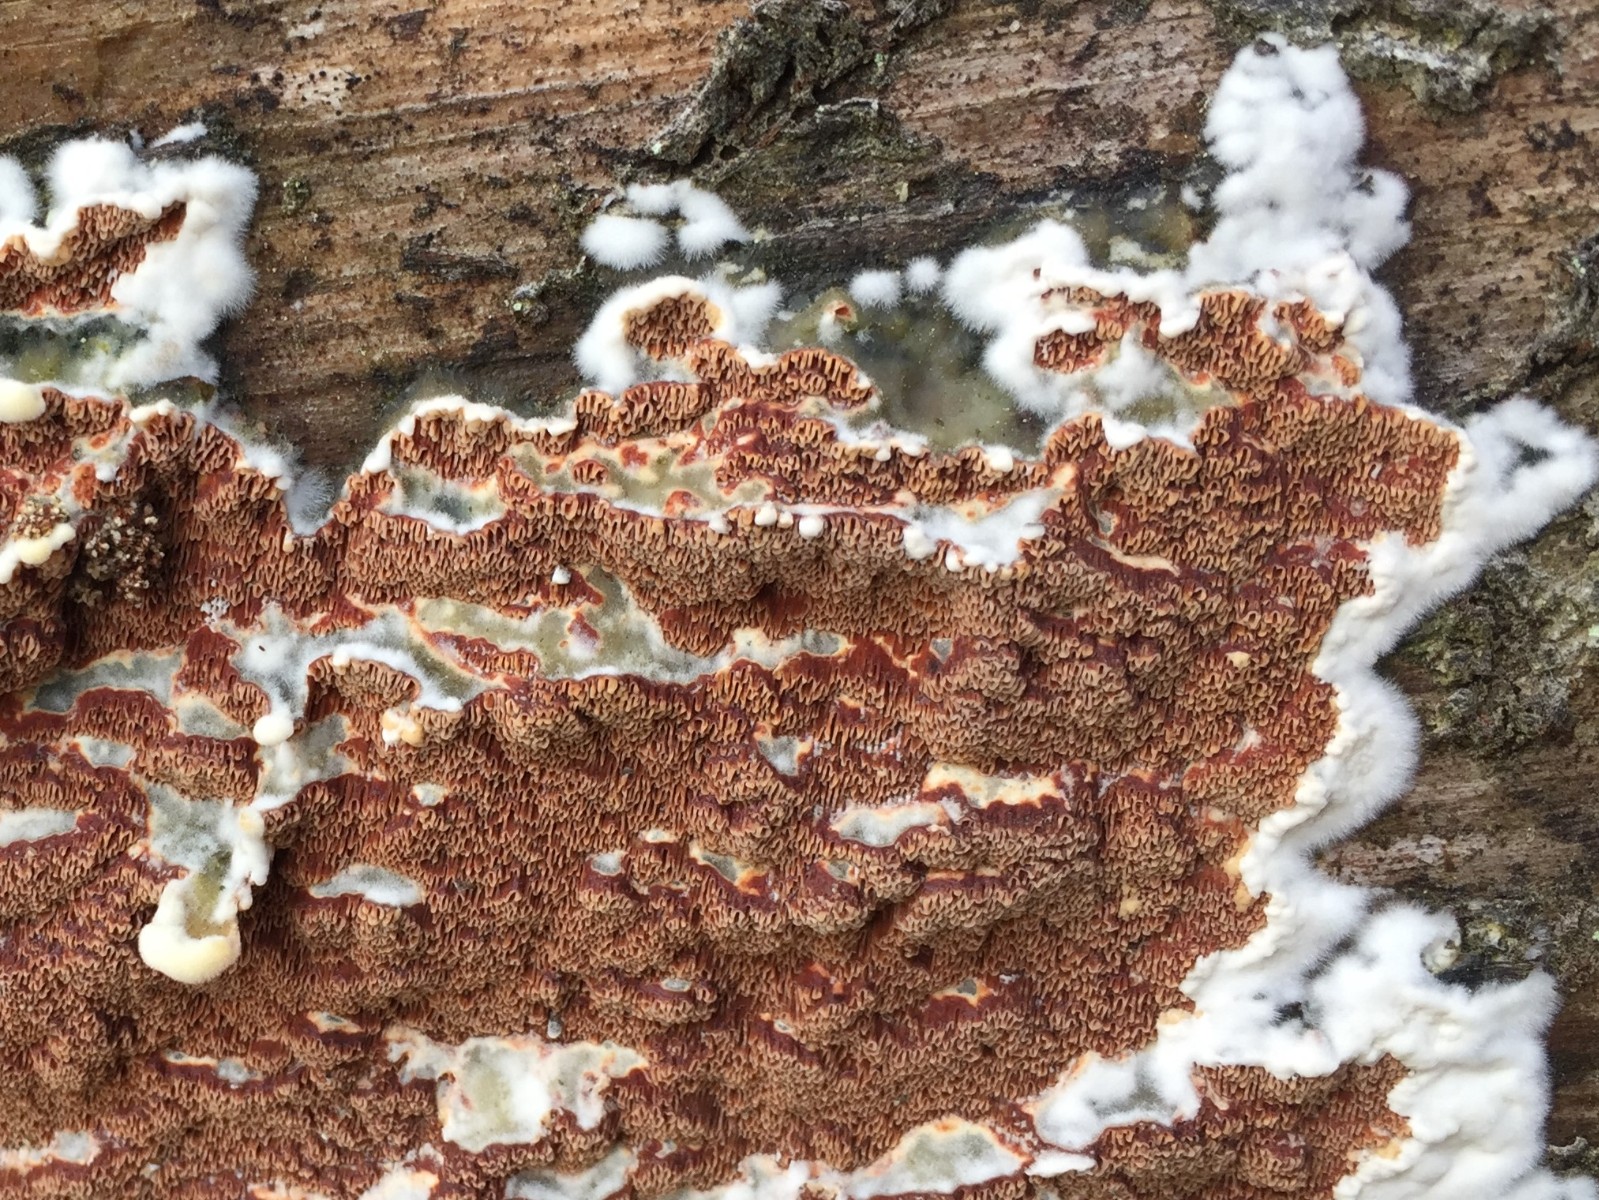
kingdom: Fungi
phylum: Basidiomycota
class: Agaricomycetes
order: Polyporales
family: Irpicaceae
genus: Meruliopsis
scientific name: Meruliopsis taxicola
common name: purpurbrun foldporesvamp
